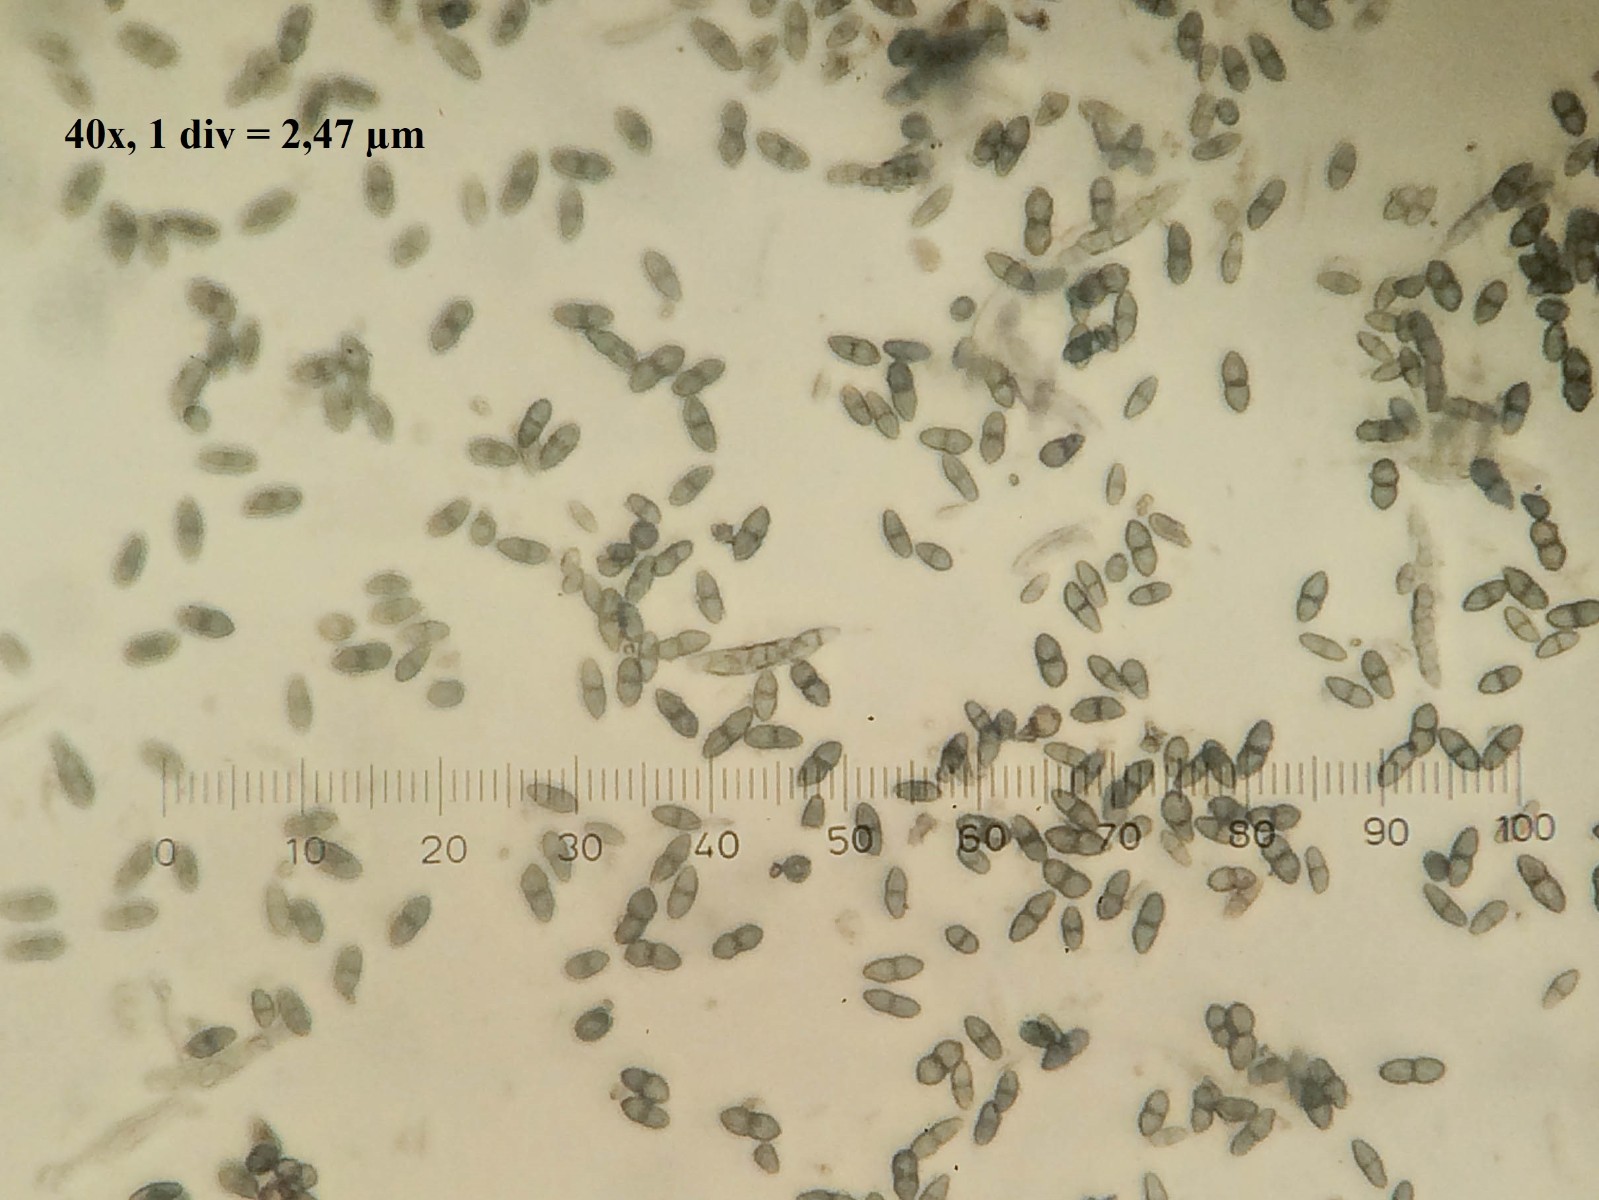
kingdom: Fungi
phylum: Ascomycota
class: Lecanoromycetes
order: Caliciales
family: Caliciaceae
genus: Calicium
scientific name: Calicium viride
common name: gulgrøn nålelav
